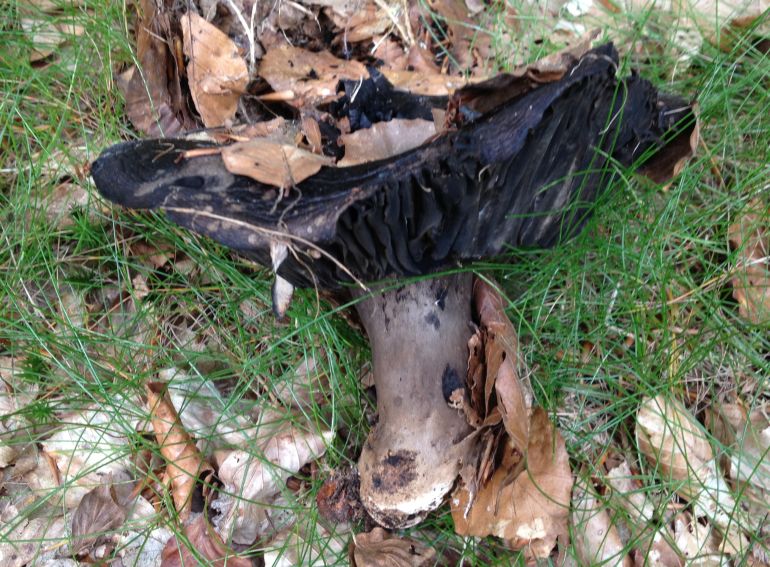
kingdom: Fungi
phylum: Basidiomycota
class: Agaricomycetes
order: Russulales
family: Russulaceae
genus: Russula
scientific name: Russula adusta
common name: sværtende skørhat
